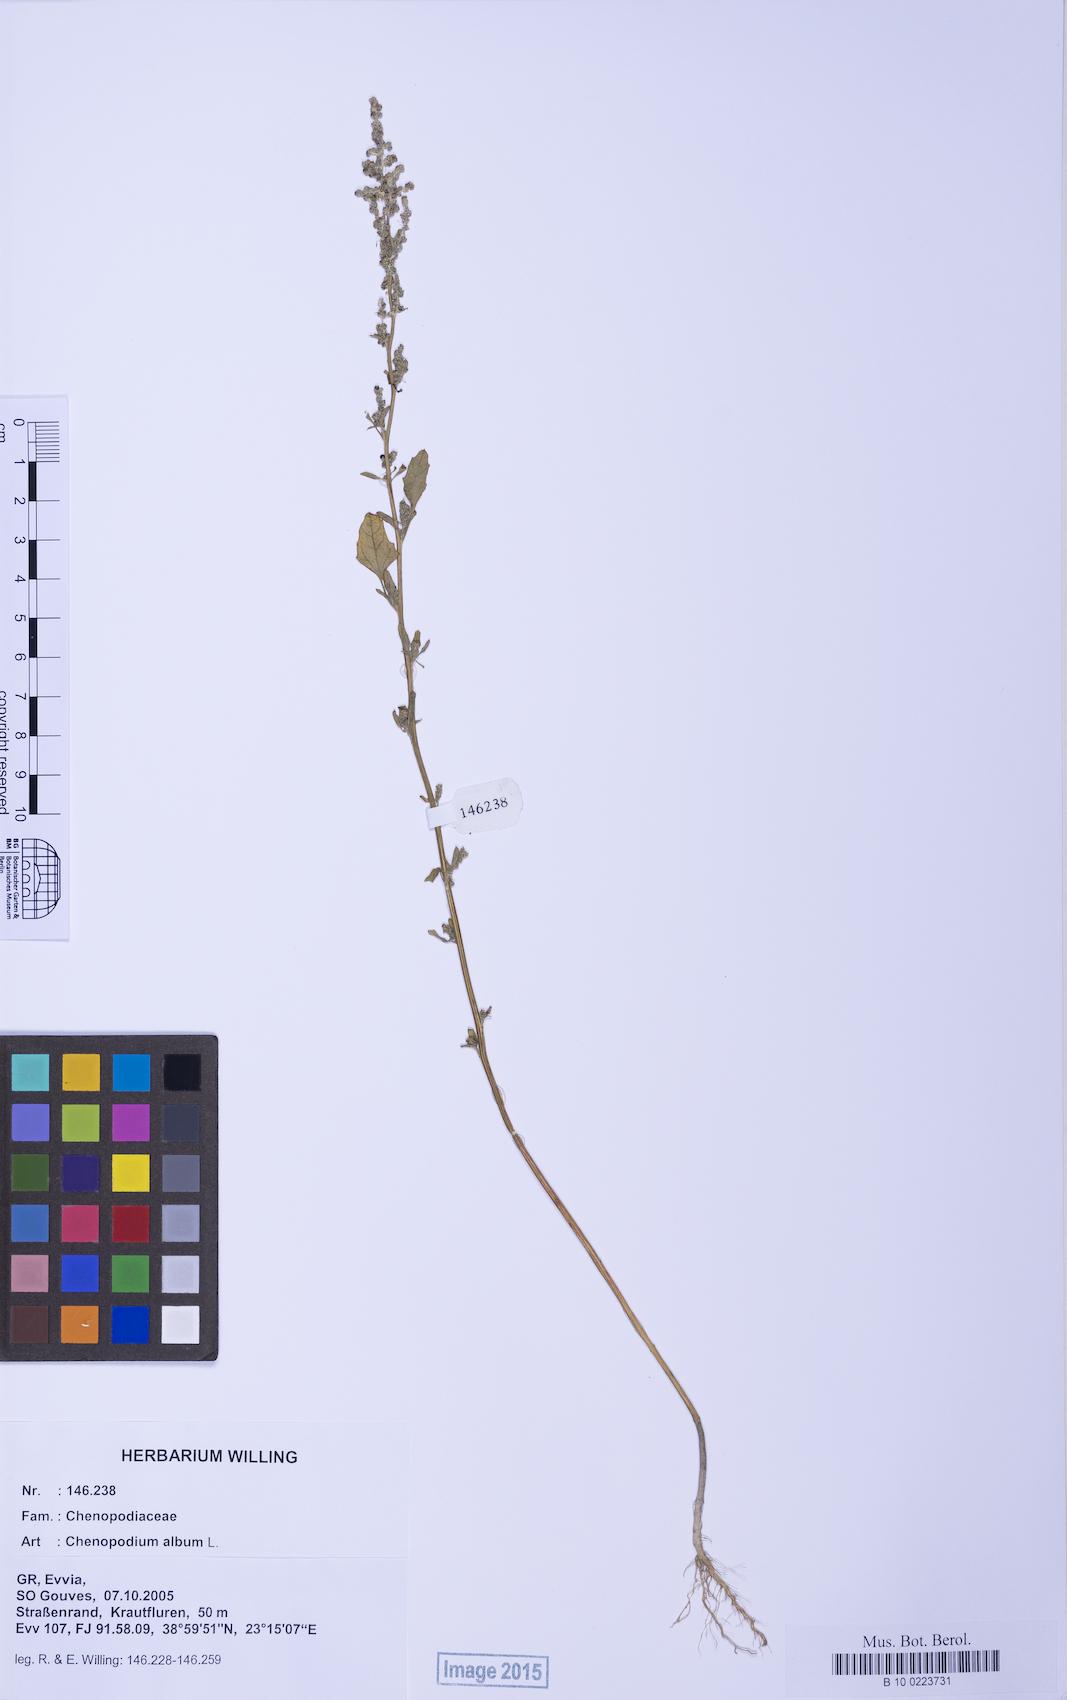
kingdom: Plantae
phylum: Tracheophyta
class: Magnoliopsida
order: Caryophyllales
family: Amaranthaceae
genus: Chenopodium
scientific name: Chenopodium album
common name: Fat-hen
